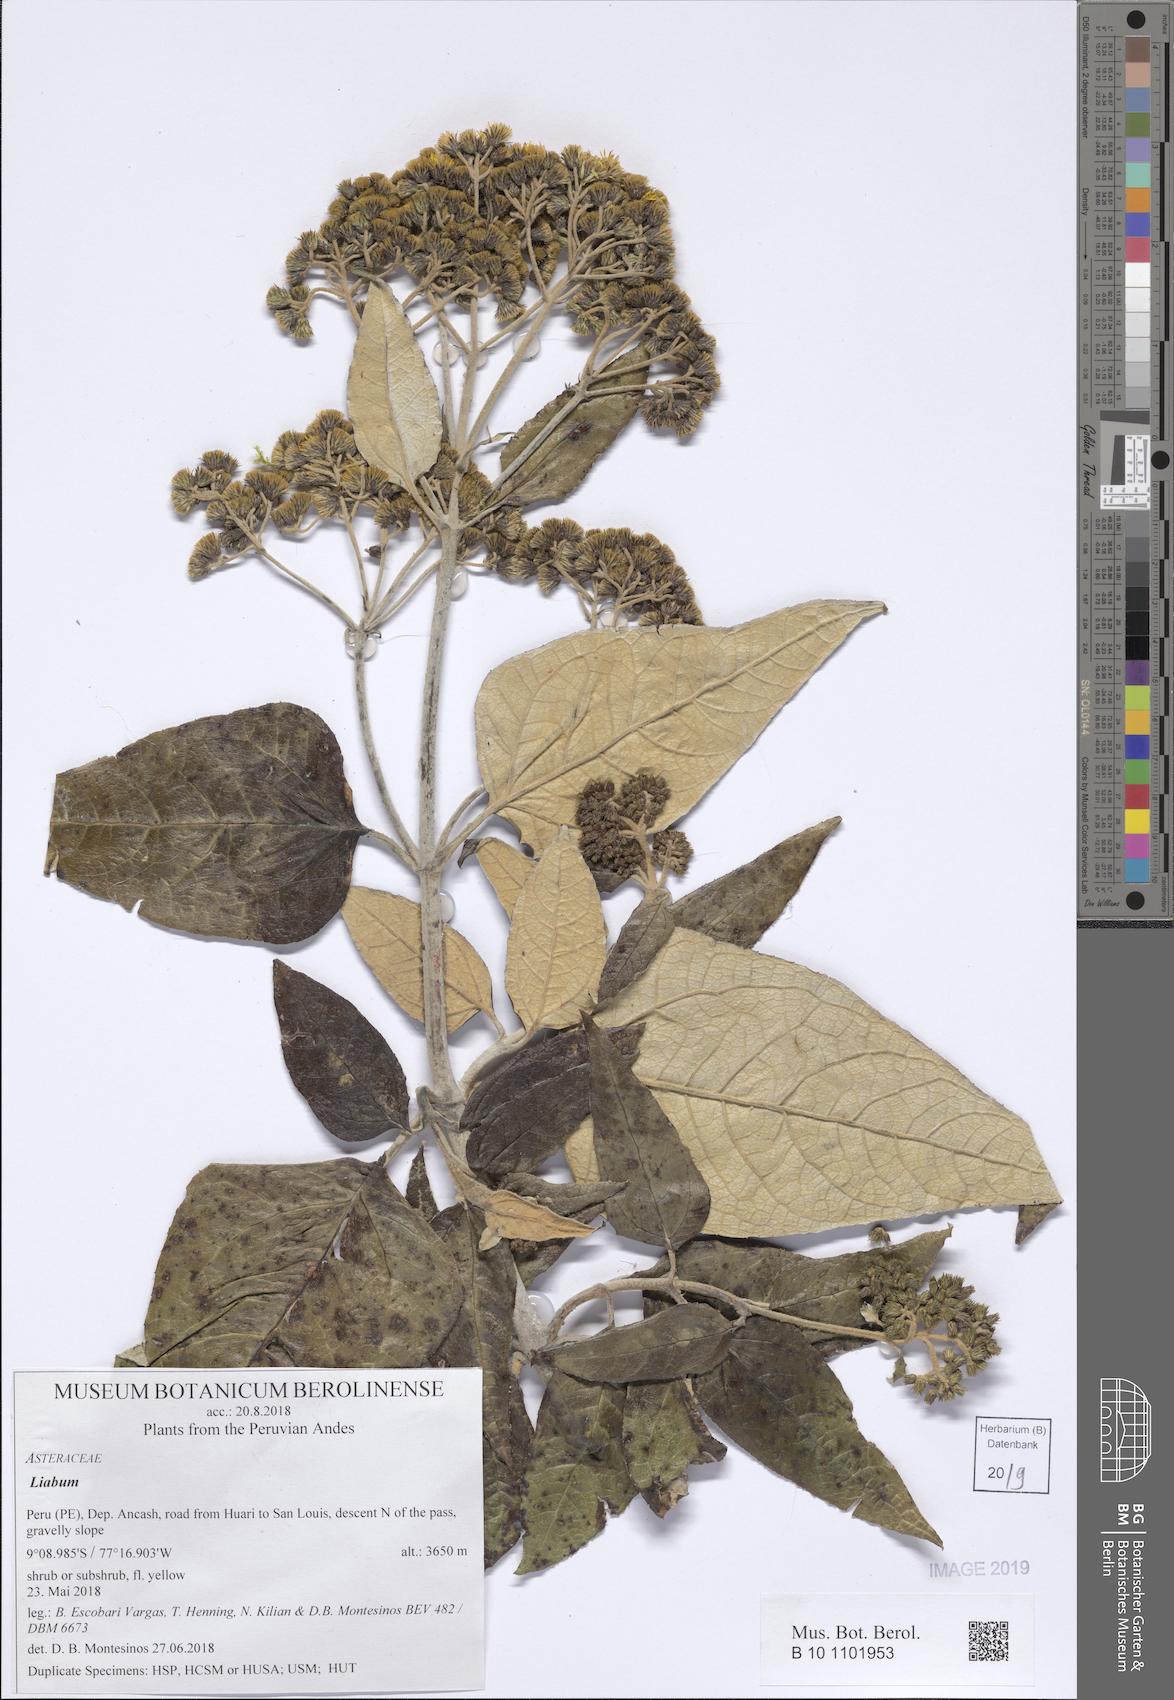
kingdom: Plantae
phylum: Tracheophyta
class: Magnoliopsida
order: Asterales
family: Asteraceae
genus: Liabum
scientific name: Liabum
